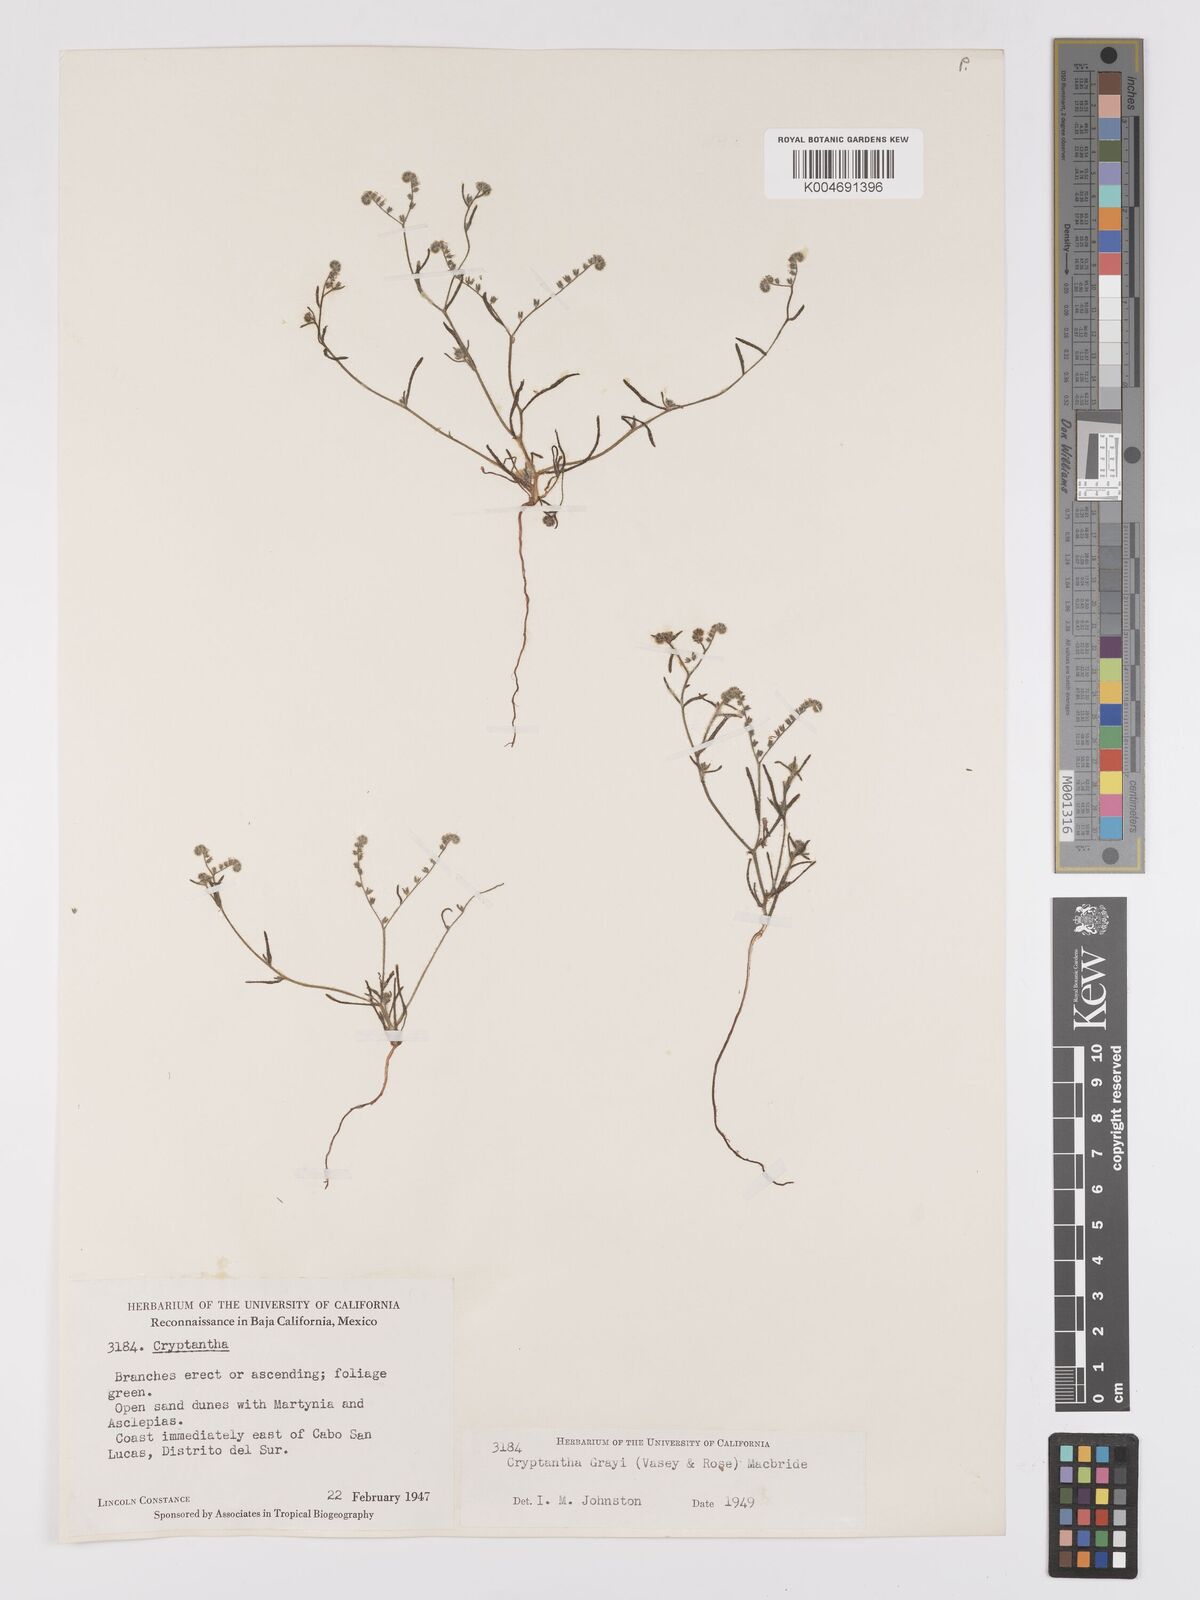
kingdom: Plantae
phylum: Tracheophyta
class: Magnoliopsida
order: Boraginales
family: Boraginaceae
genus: Johnstonella
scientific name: Johnstonella grayi
